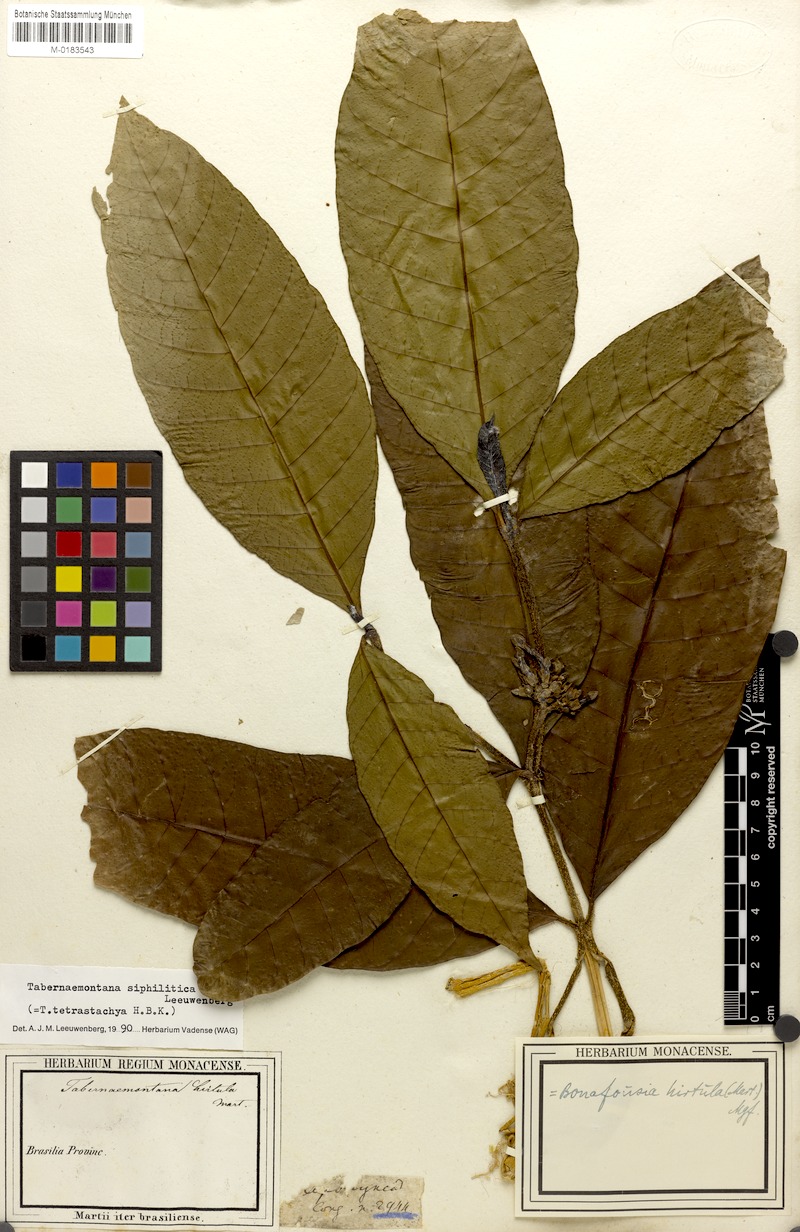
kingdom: Plantae
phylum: Tracheophyta
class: Magnoliopsida
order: Gentianales
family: Apocynaceae
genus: Tabernaemontana
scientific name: Tabernaemontana siphilitica
